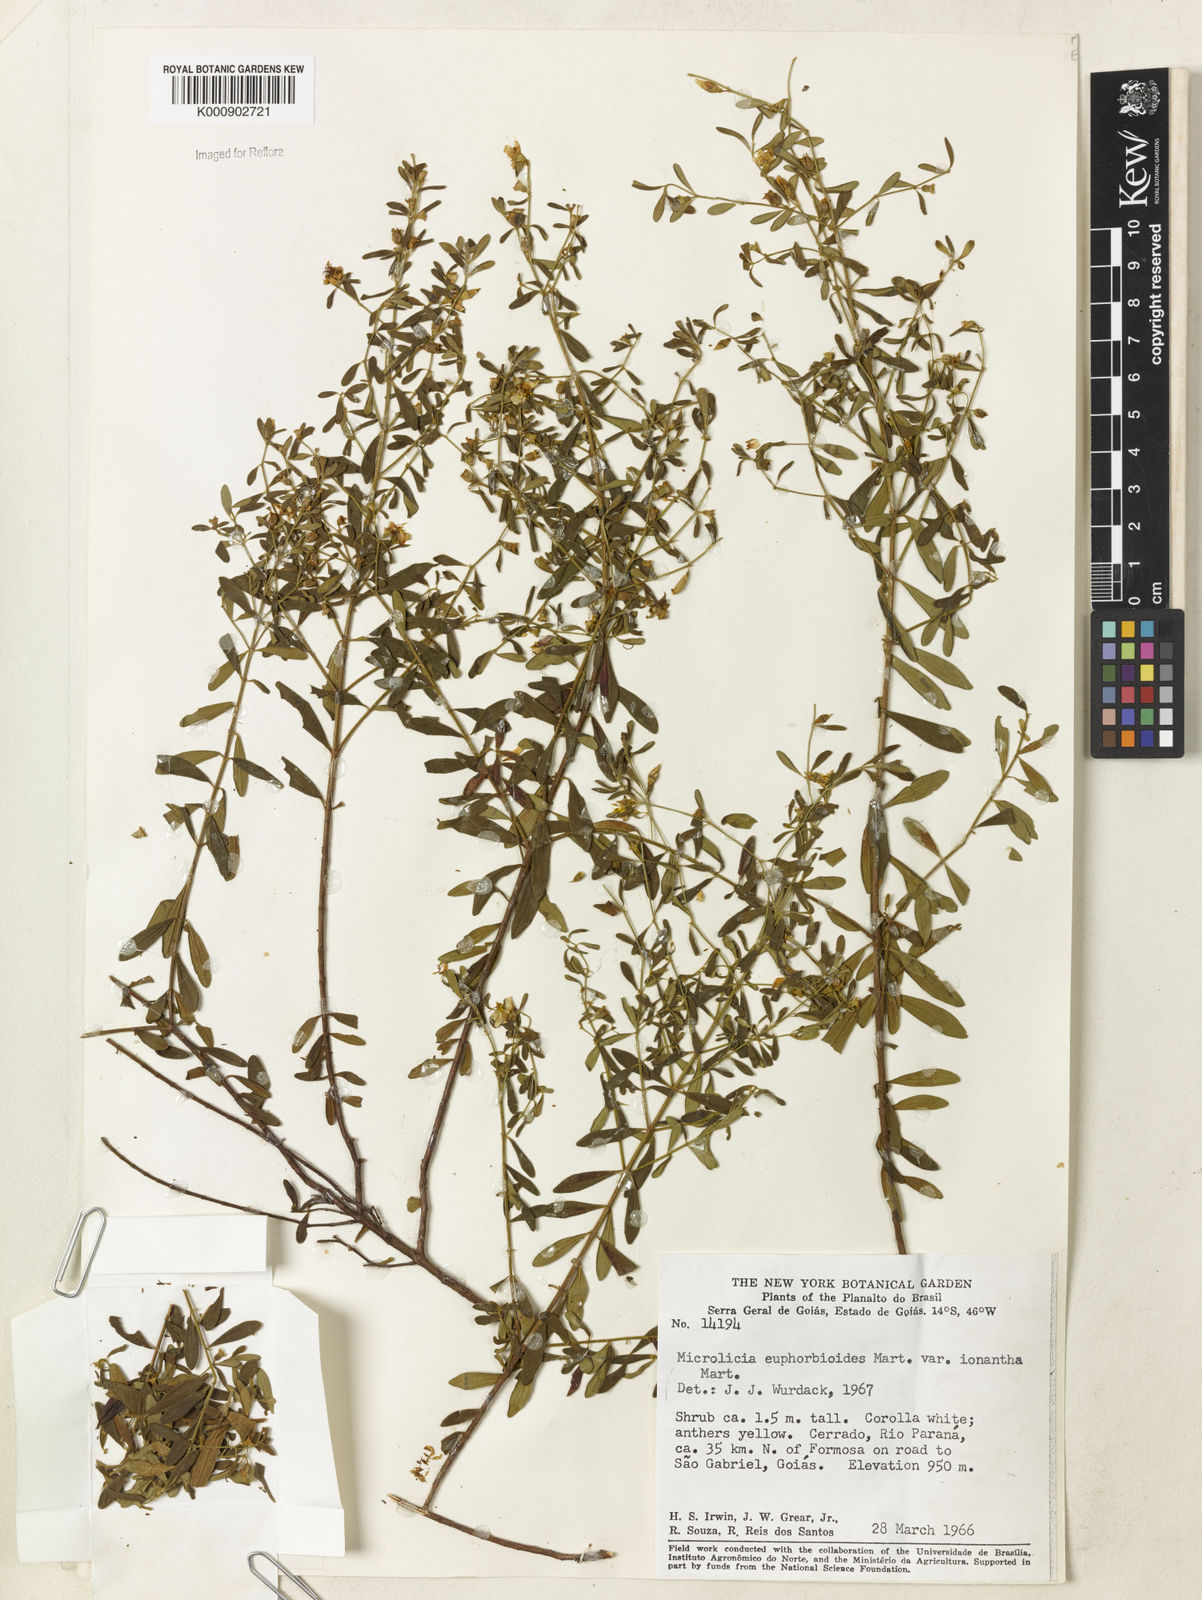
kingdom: Plantae
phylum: Tracheophyta
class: Magnoliopsida
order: Myrtales
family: Melastomataceae
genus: Microlicia
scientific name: Microlicia euphorbioides
